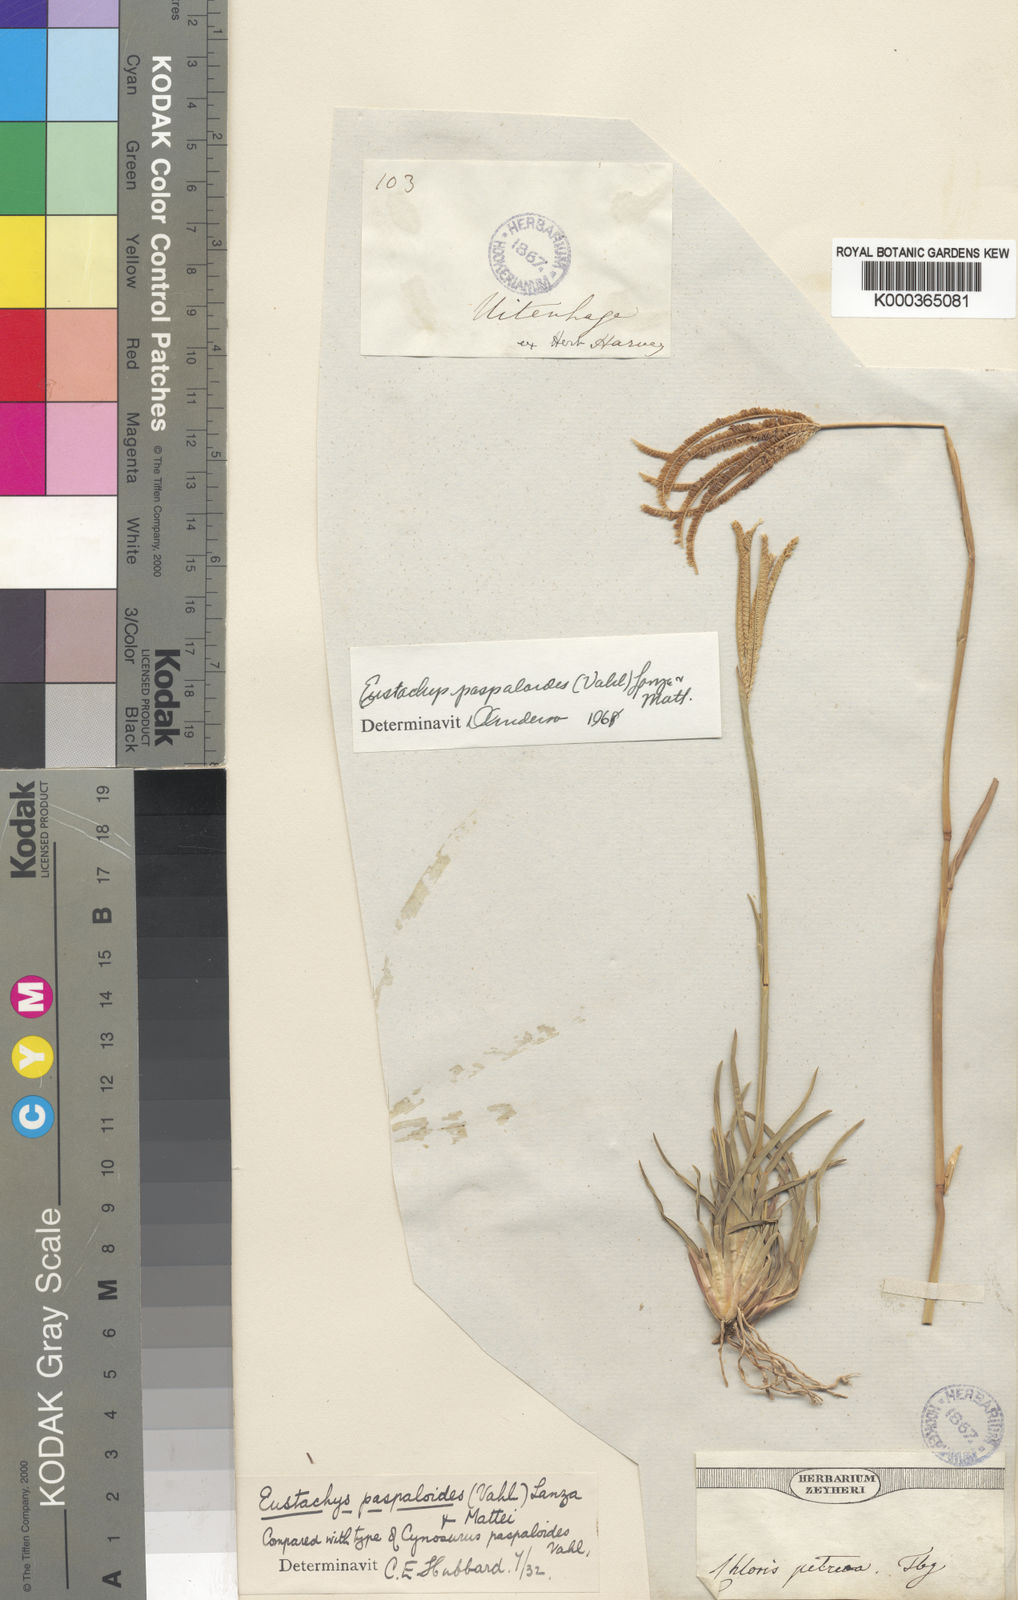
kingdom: Plantae
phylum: Tracheophyta
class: Liliopsida
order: Poales
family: Poaceae
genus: Eustachys
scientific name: Eustachys paspaloides
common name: Caribbean fingergrass
